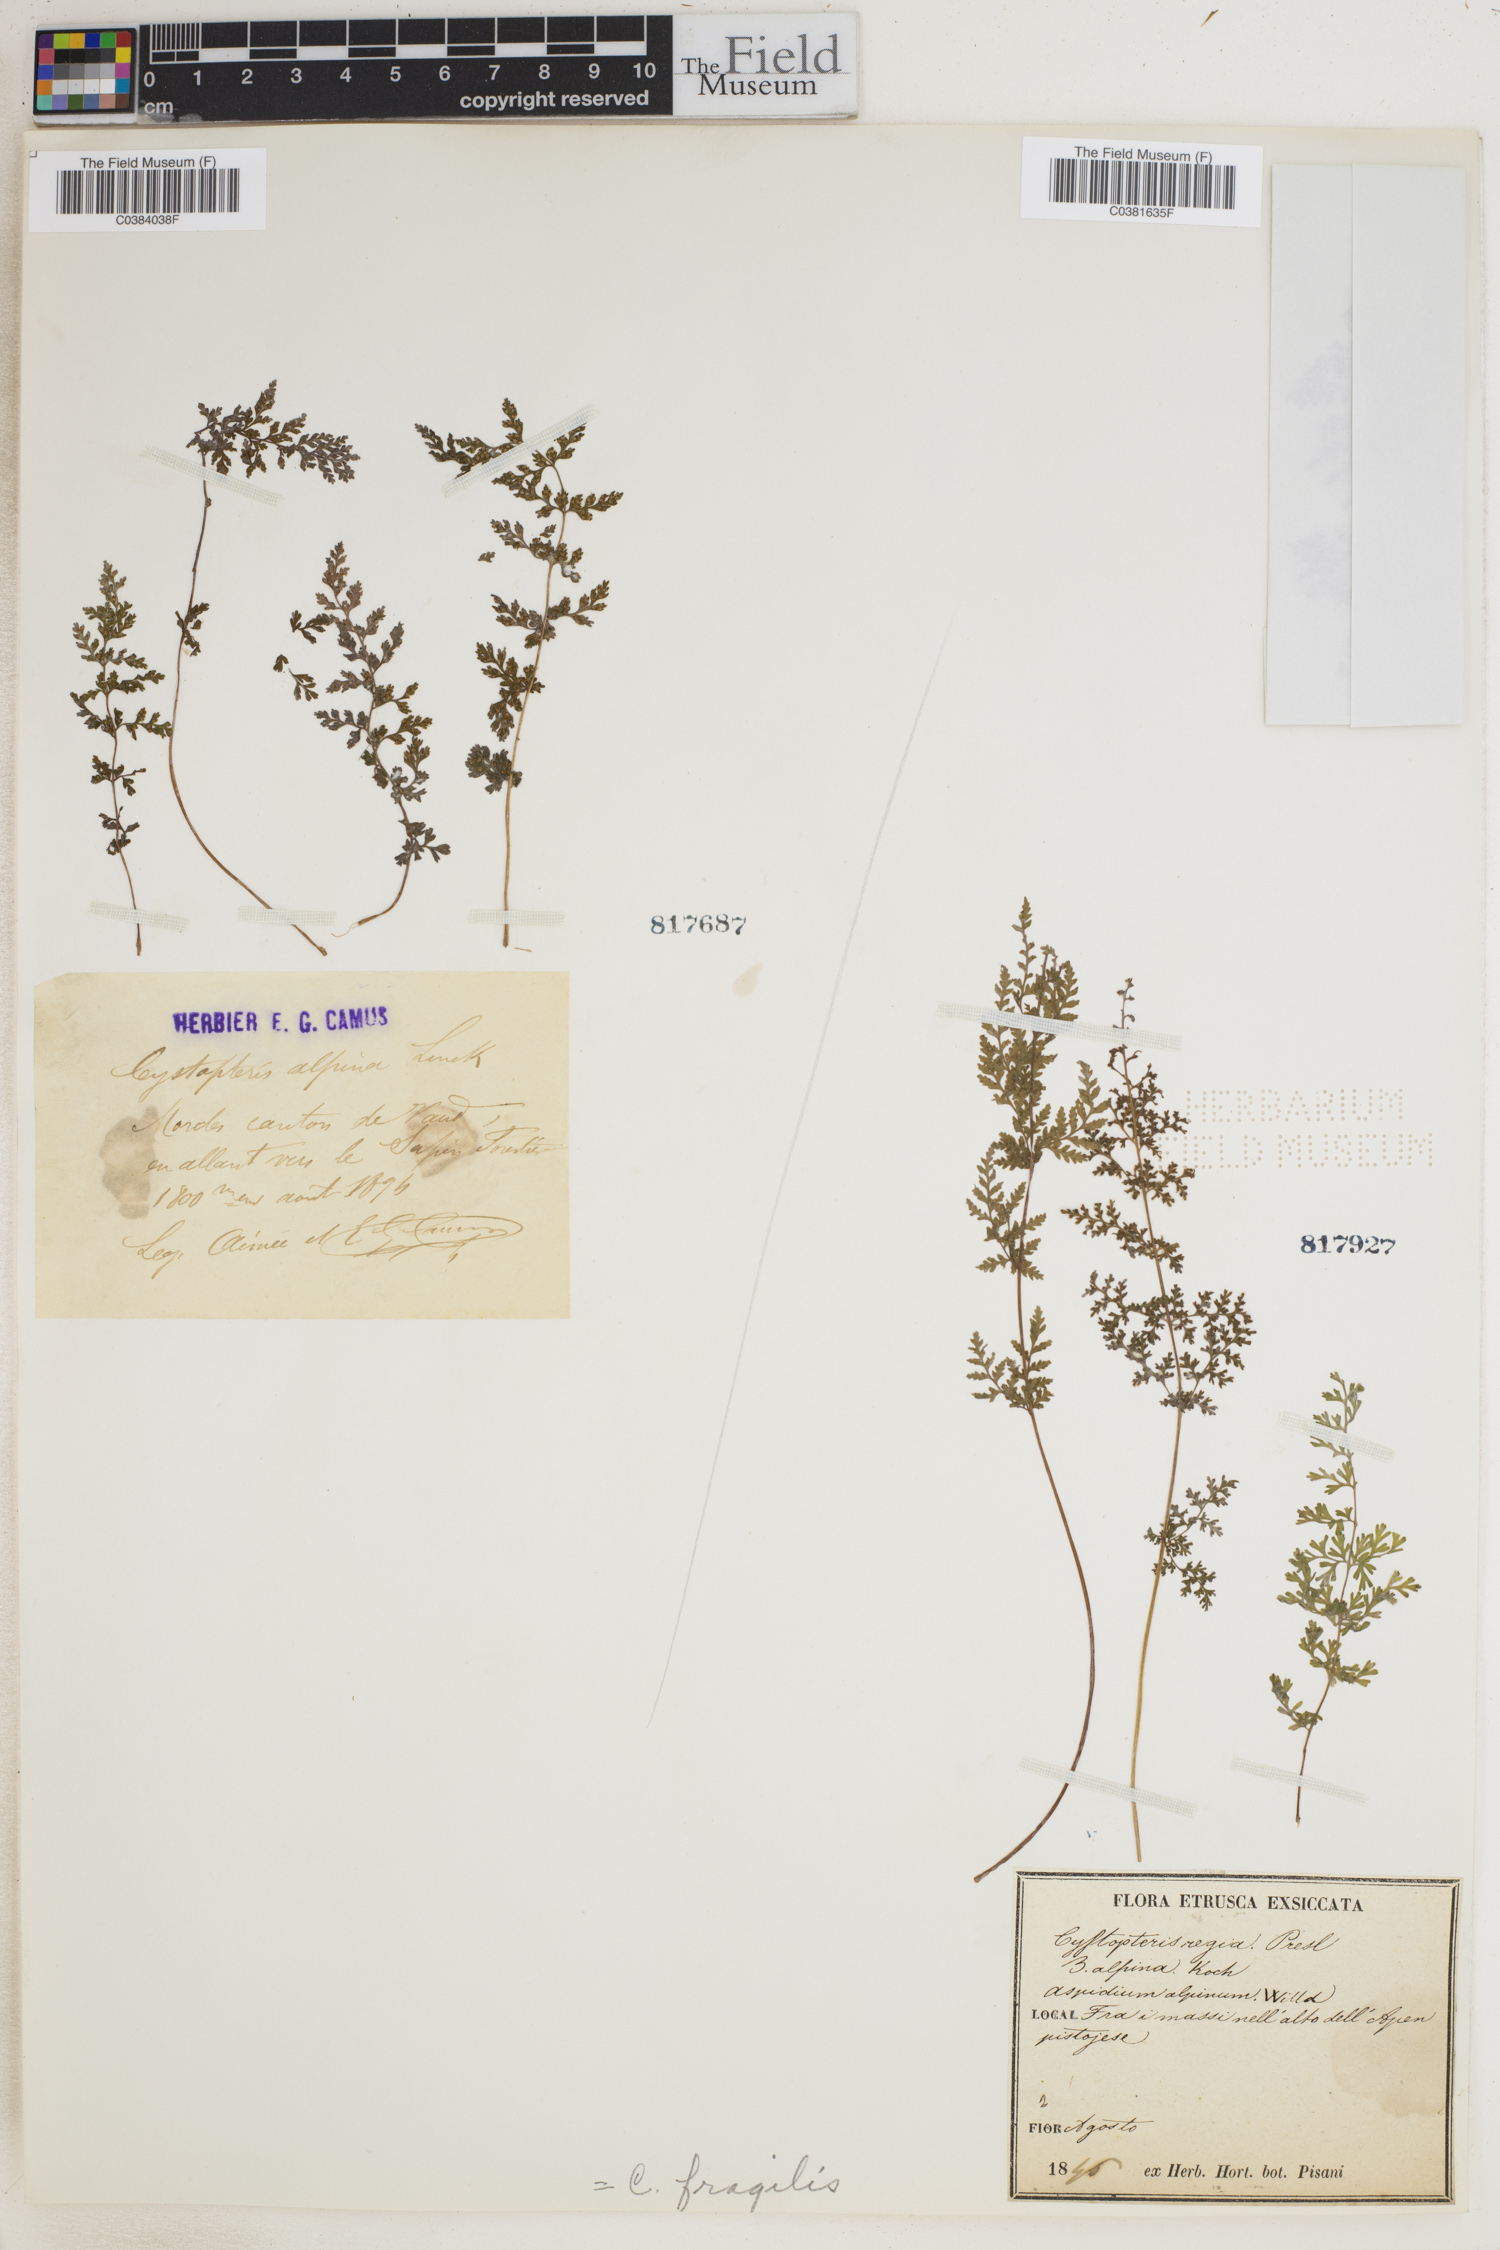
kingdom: Plantae
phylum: Tracheophyta
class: Polypodiopsida
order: Polypodiales
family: Cystopteridaceae
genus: Cystopteris
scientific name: Cystopteris fragilis
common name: Brittle bladder fern
